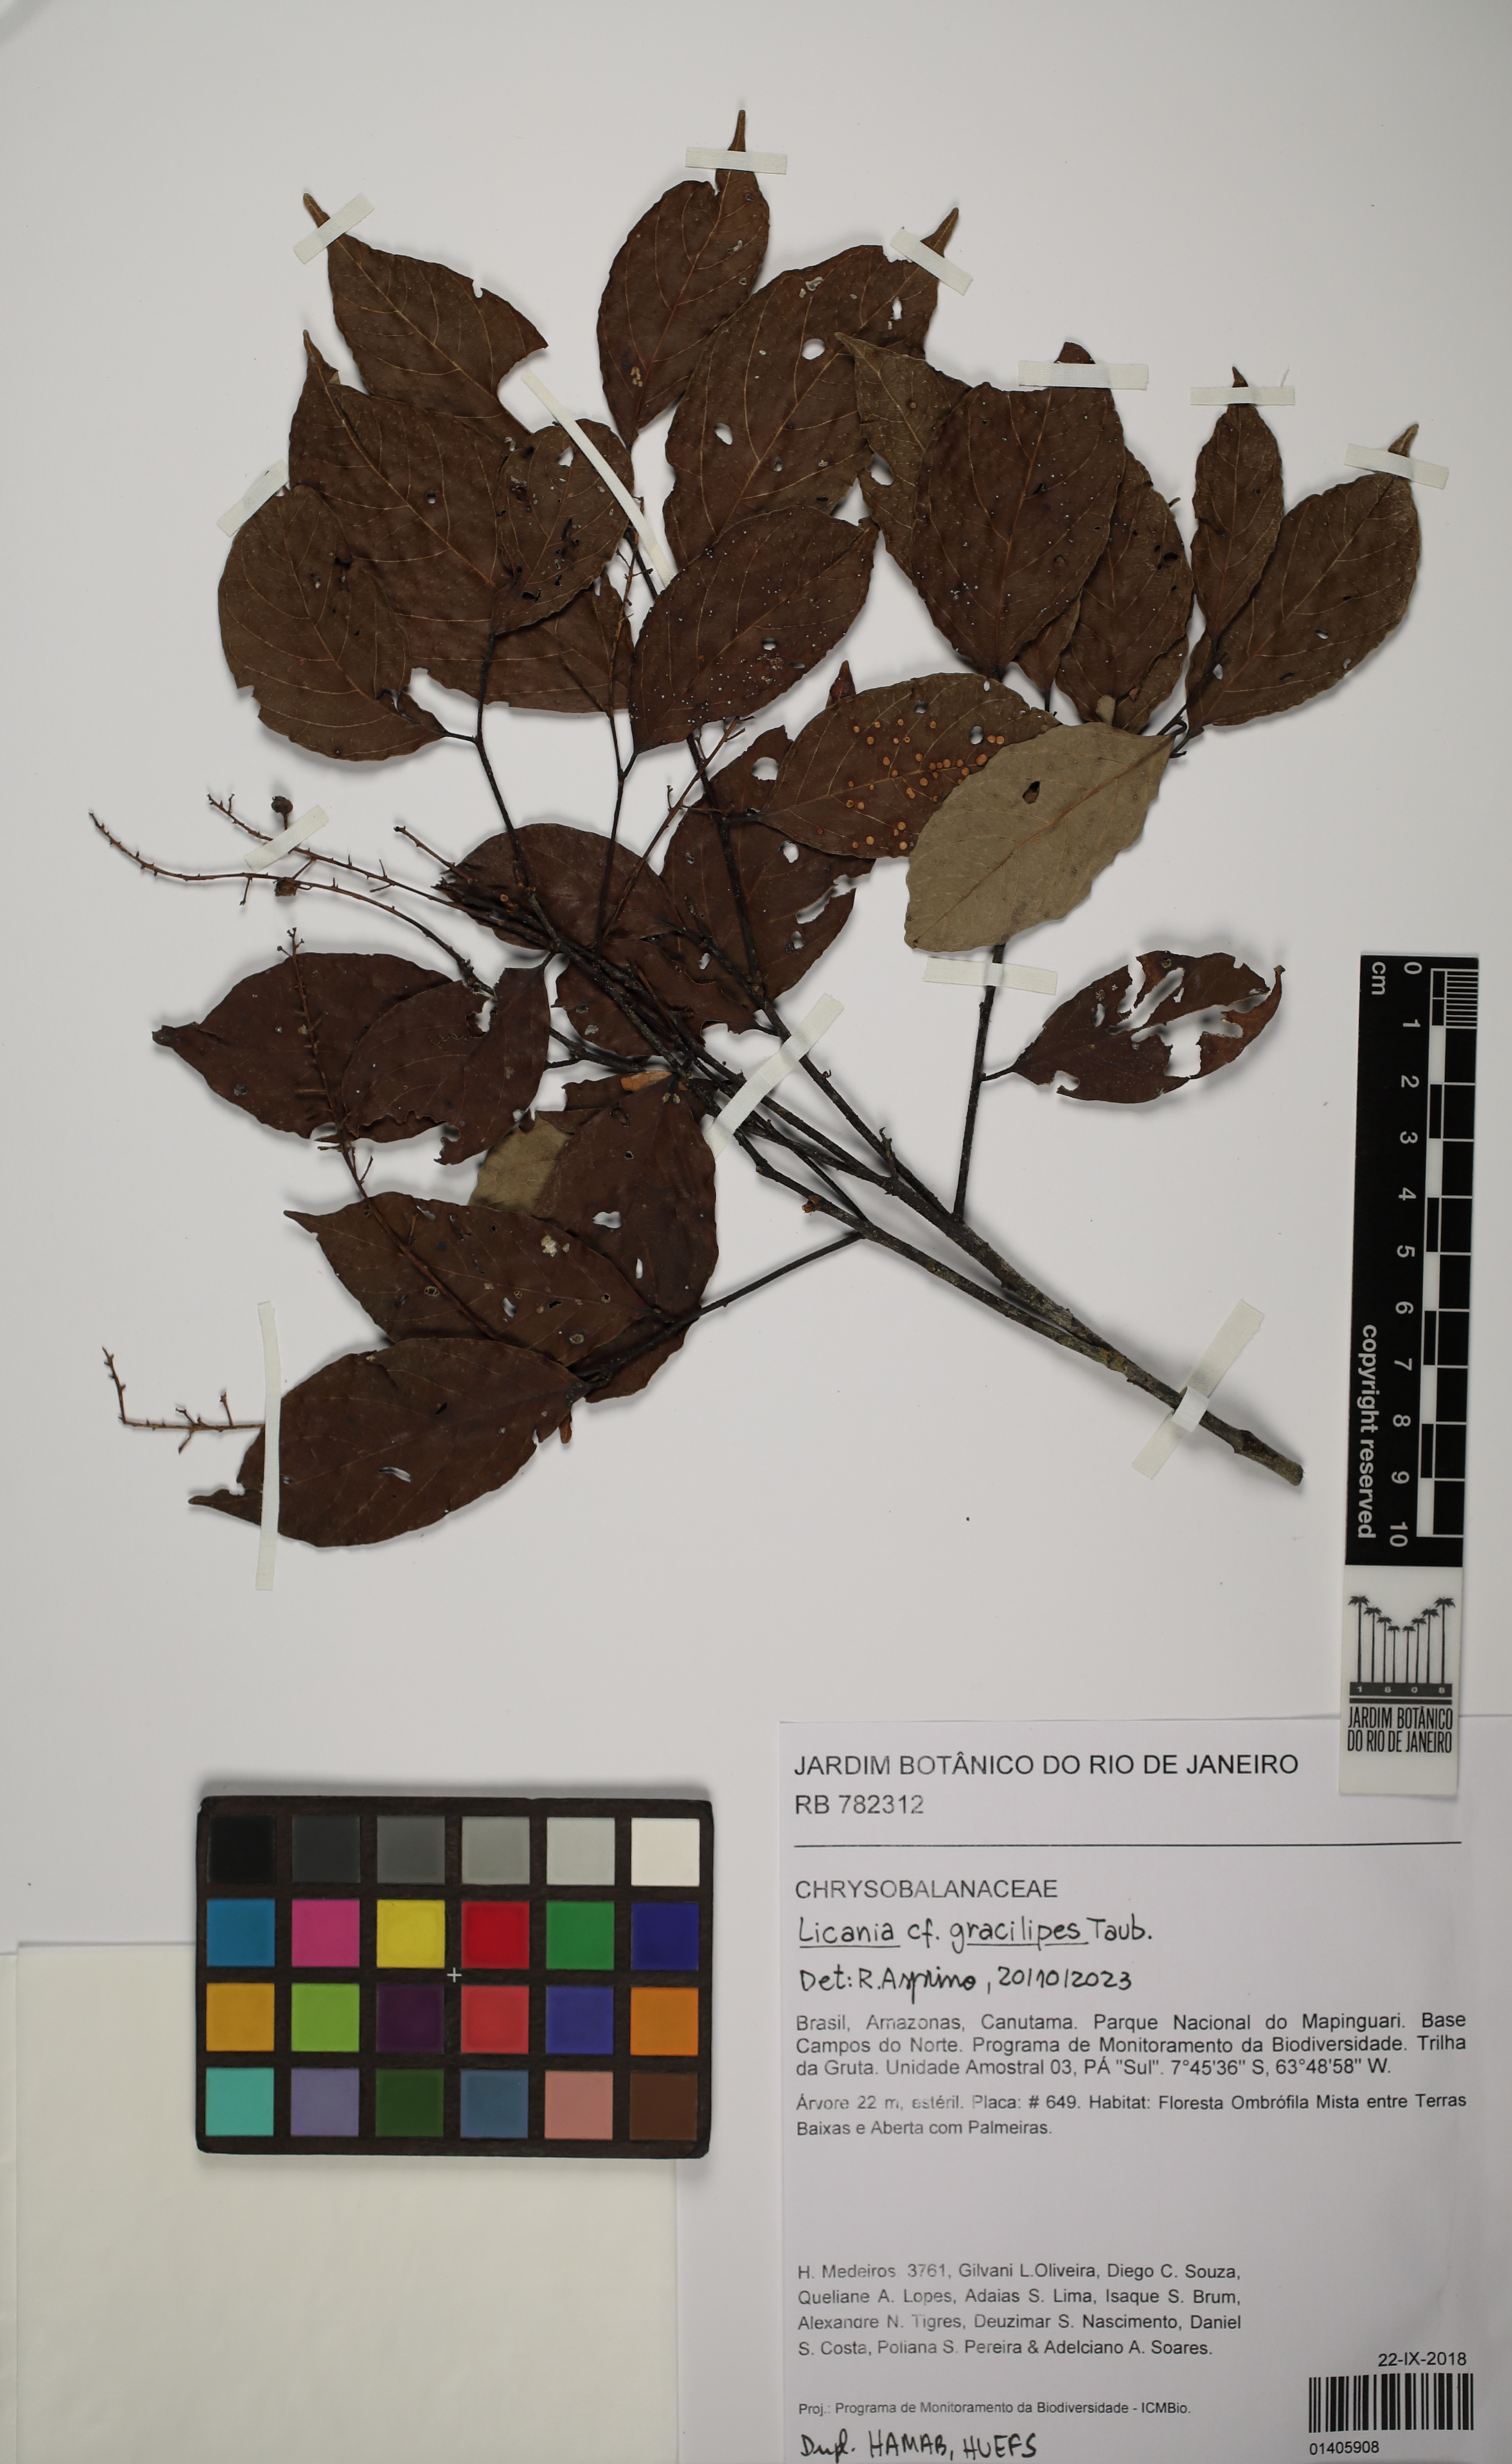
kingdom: Plantae
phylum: Tracheophyta
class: Magnoliopsida
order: Malpighiales
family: Chrysobalanaceae
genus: Licania
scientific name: Licania gracilipes
